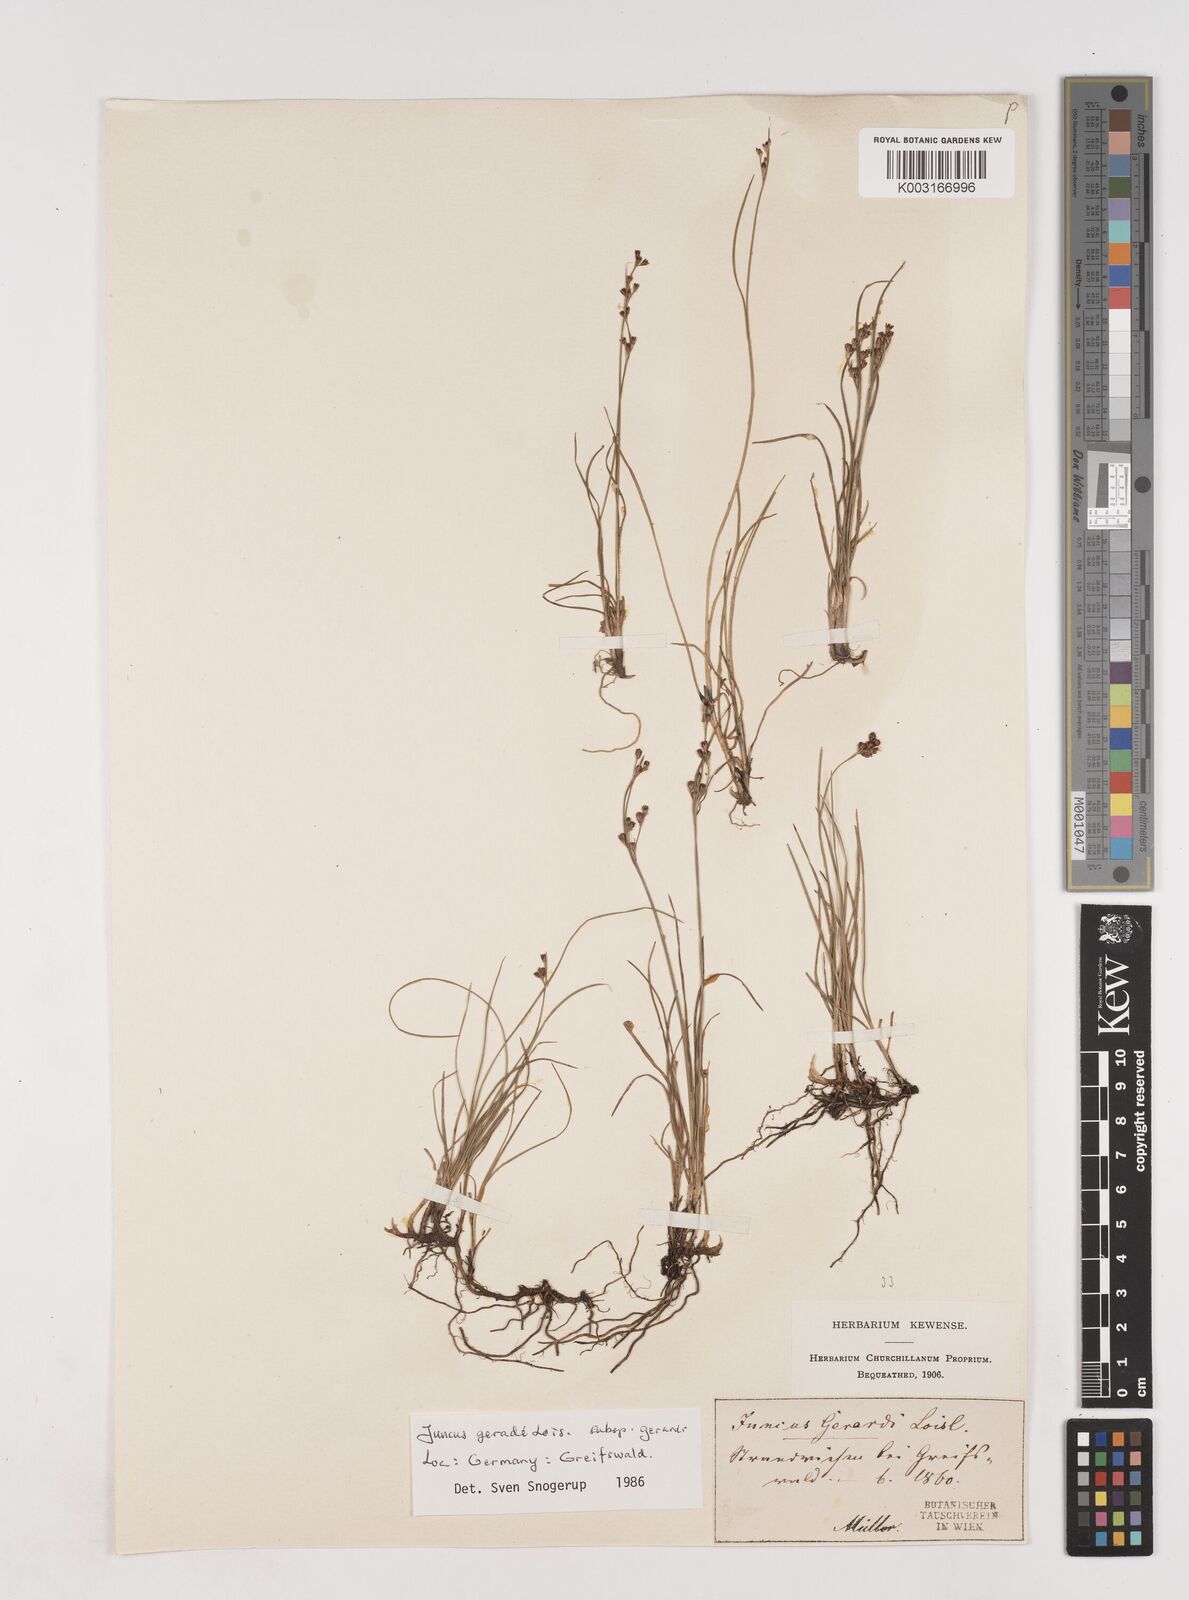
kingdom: Plantae
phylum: Tracheophyta
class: Liliopsida
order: Poales
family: Juncaceae
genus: Juncus
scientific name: Juncus gerardi
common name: Saltmarsh rush
